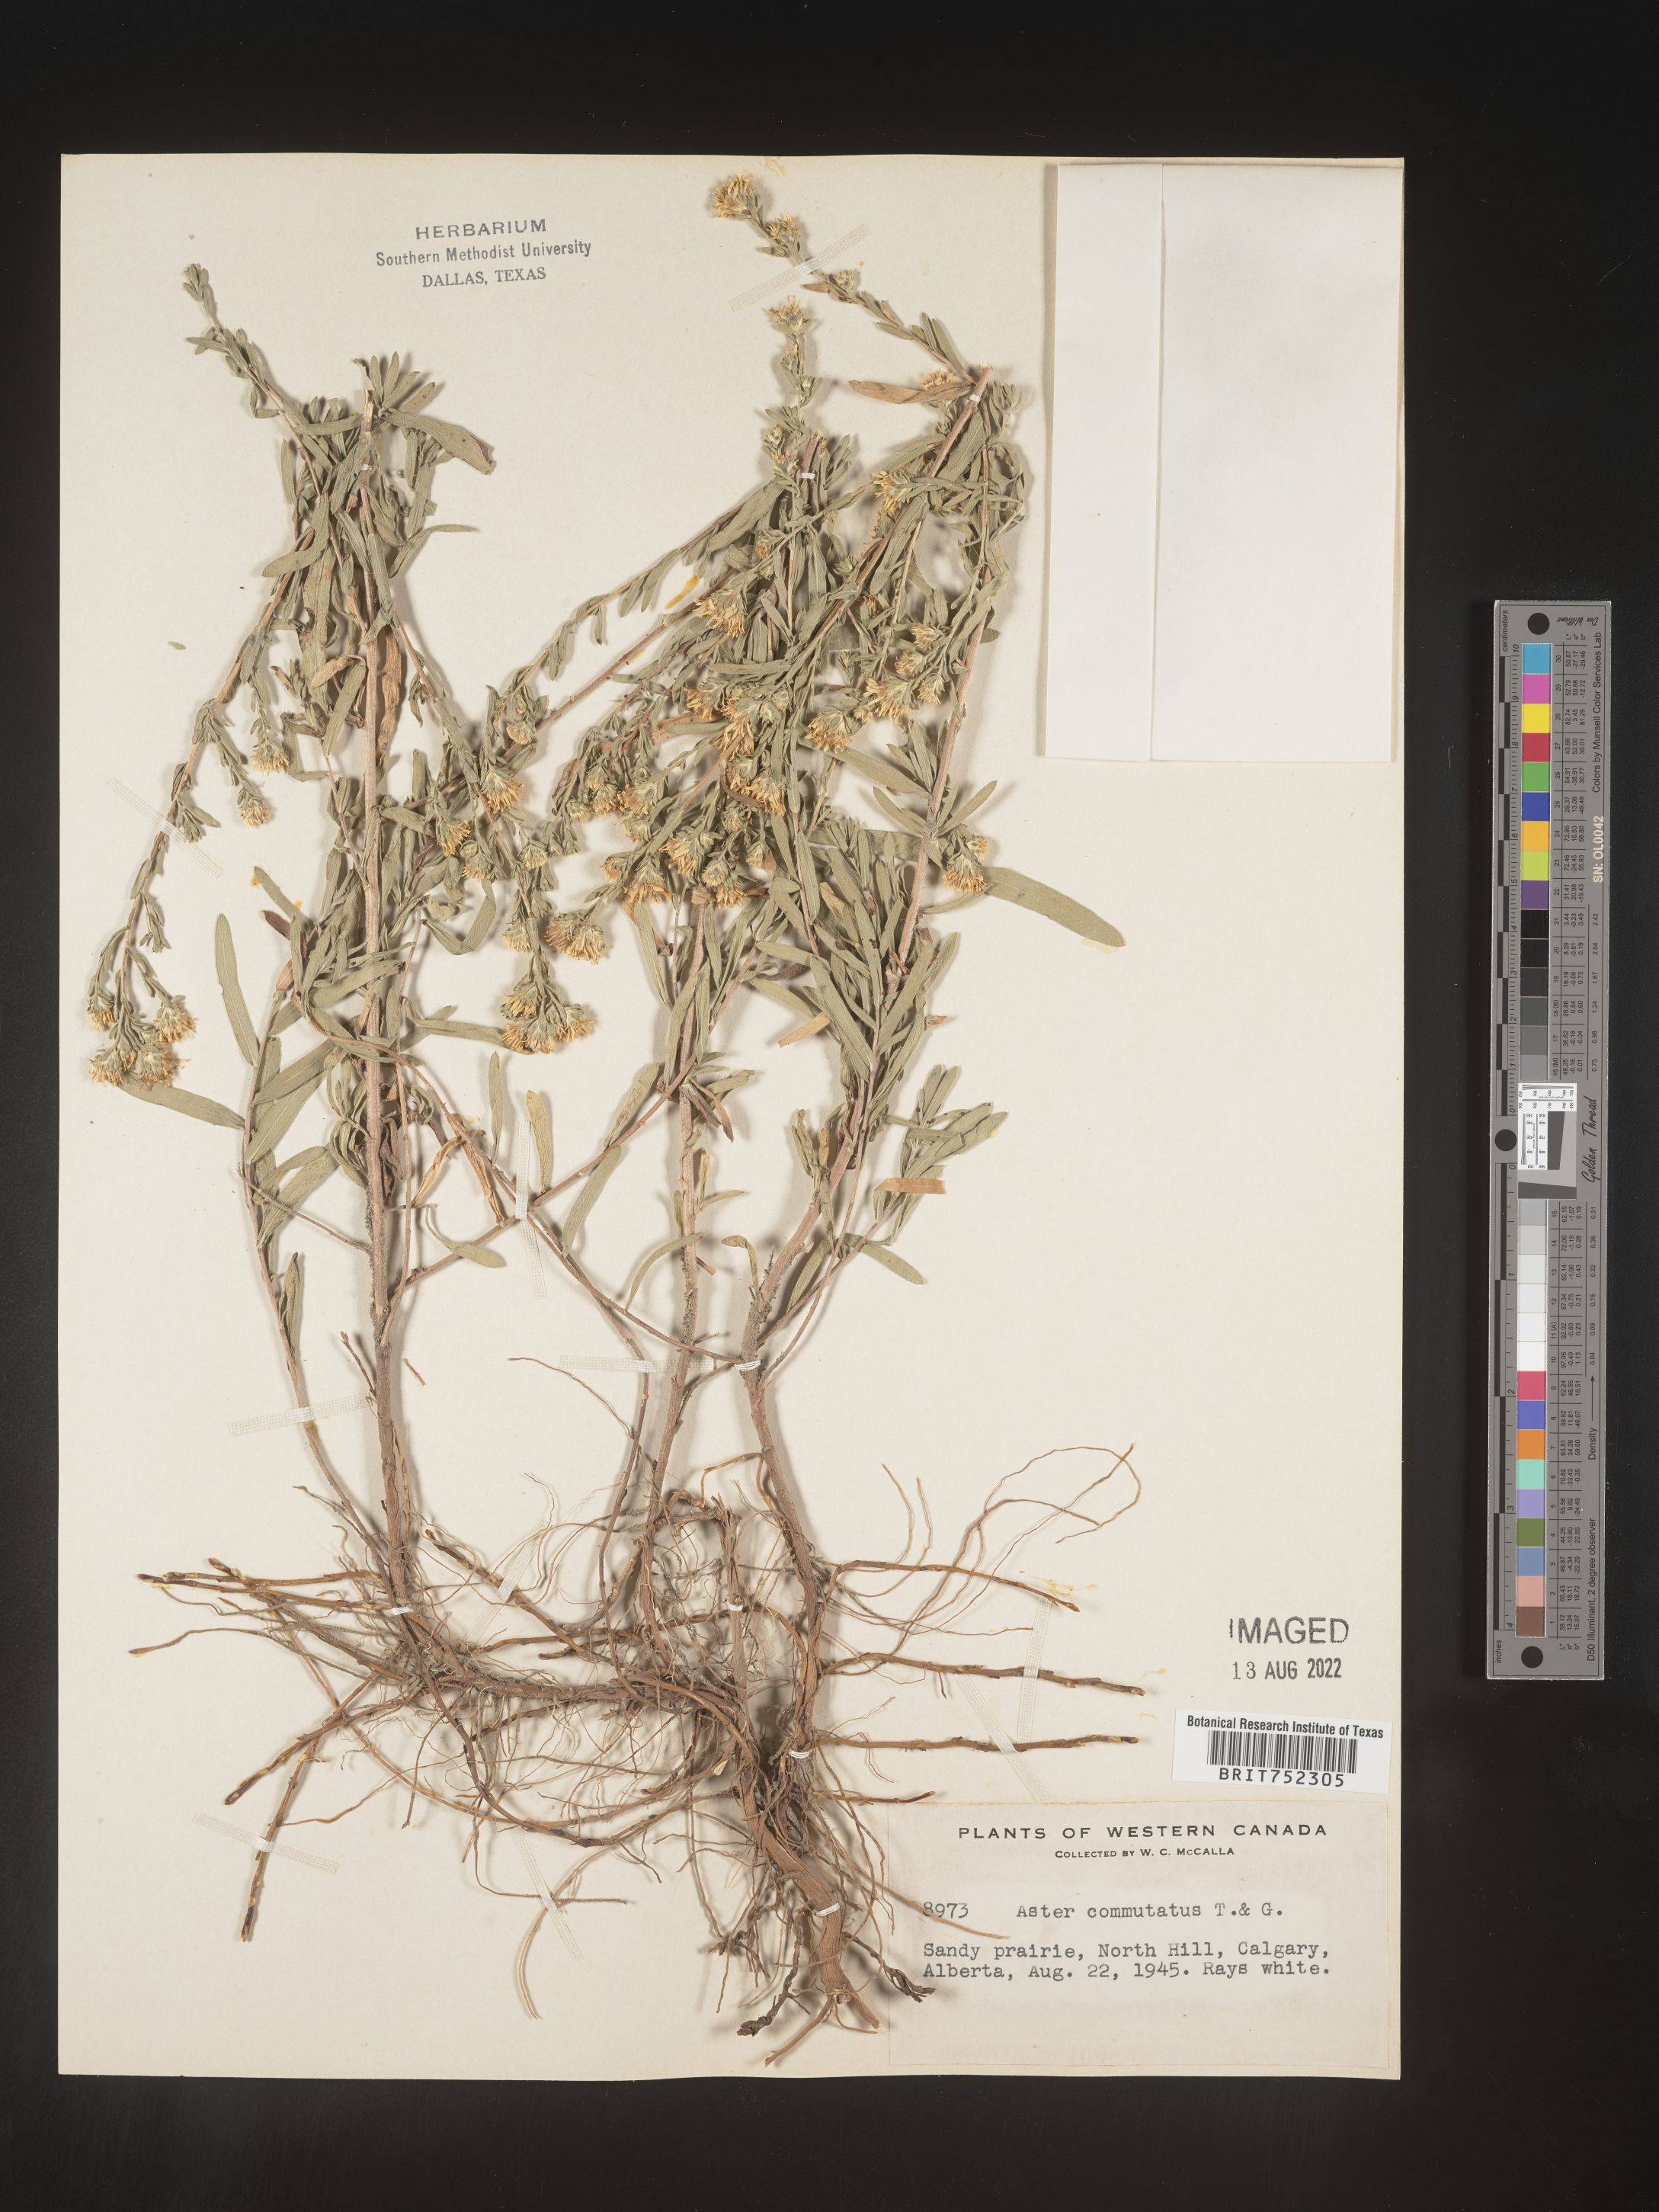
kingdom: Plantae
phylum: Tracheophyta
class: Magnoliopsida
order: Asterales
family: Asteraceae
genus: Symphyotrichum
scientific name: Symphyotrichum falcatum
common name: Creeping white prairie aster
